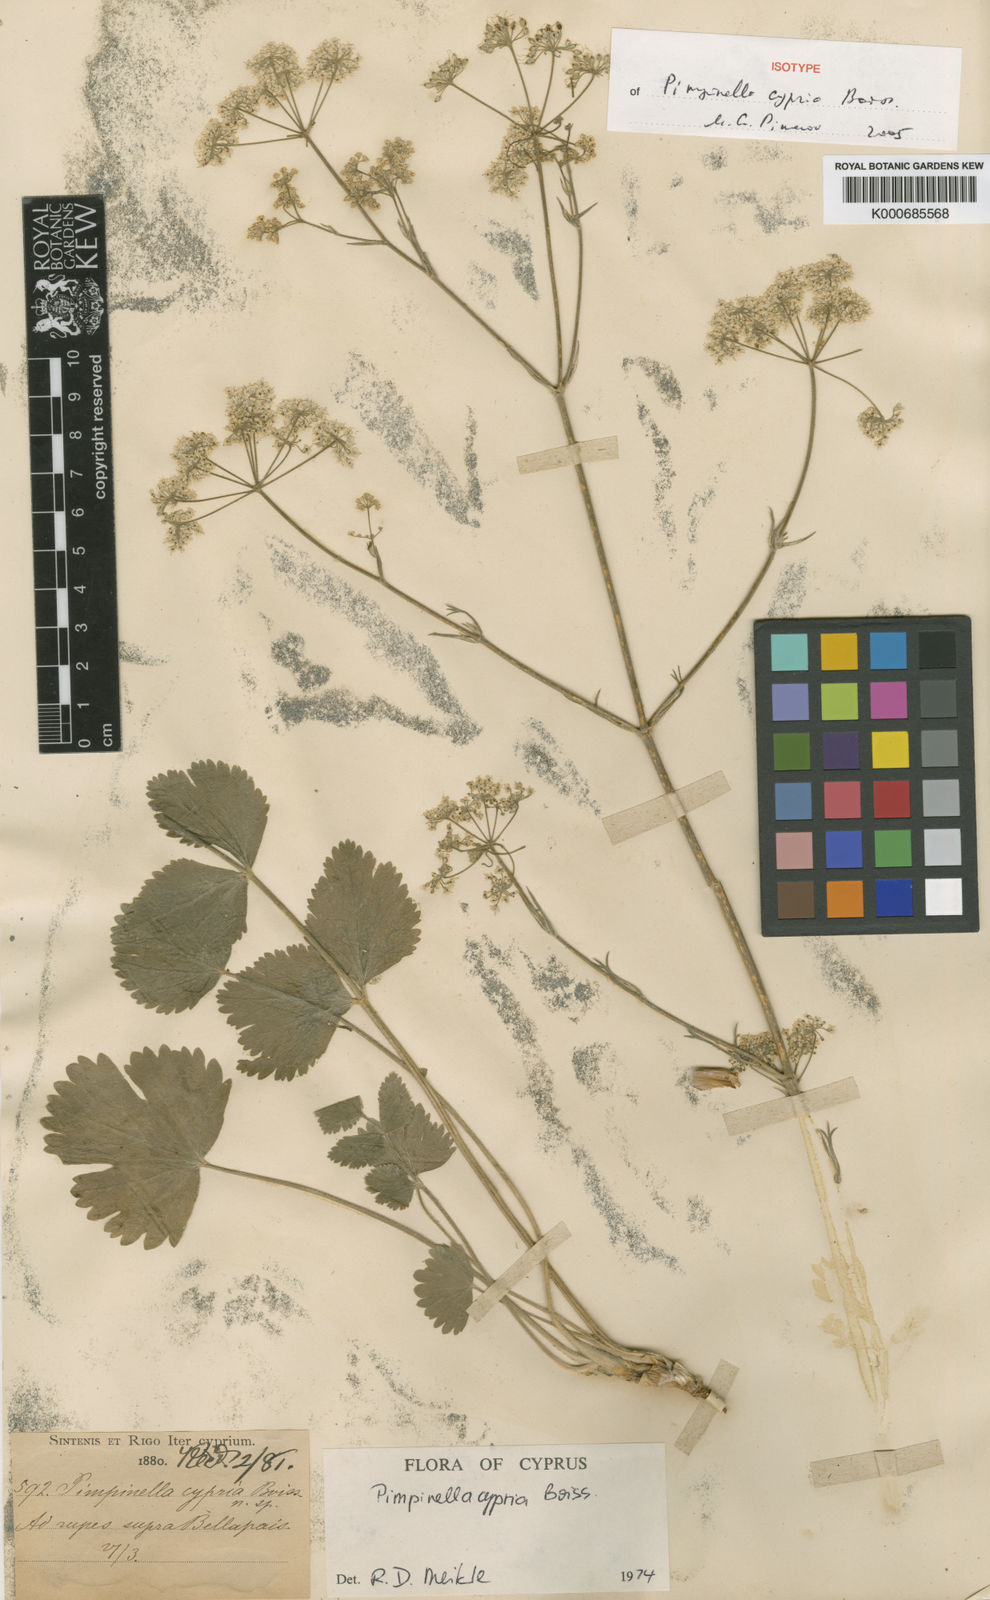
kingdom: Plantae
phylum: Tracheophyta
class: Magnoliopsida
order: Apiales
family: Apiaceae
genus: Pimpinella
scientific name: Pimpinella cypria
